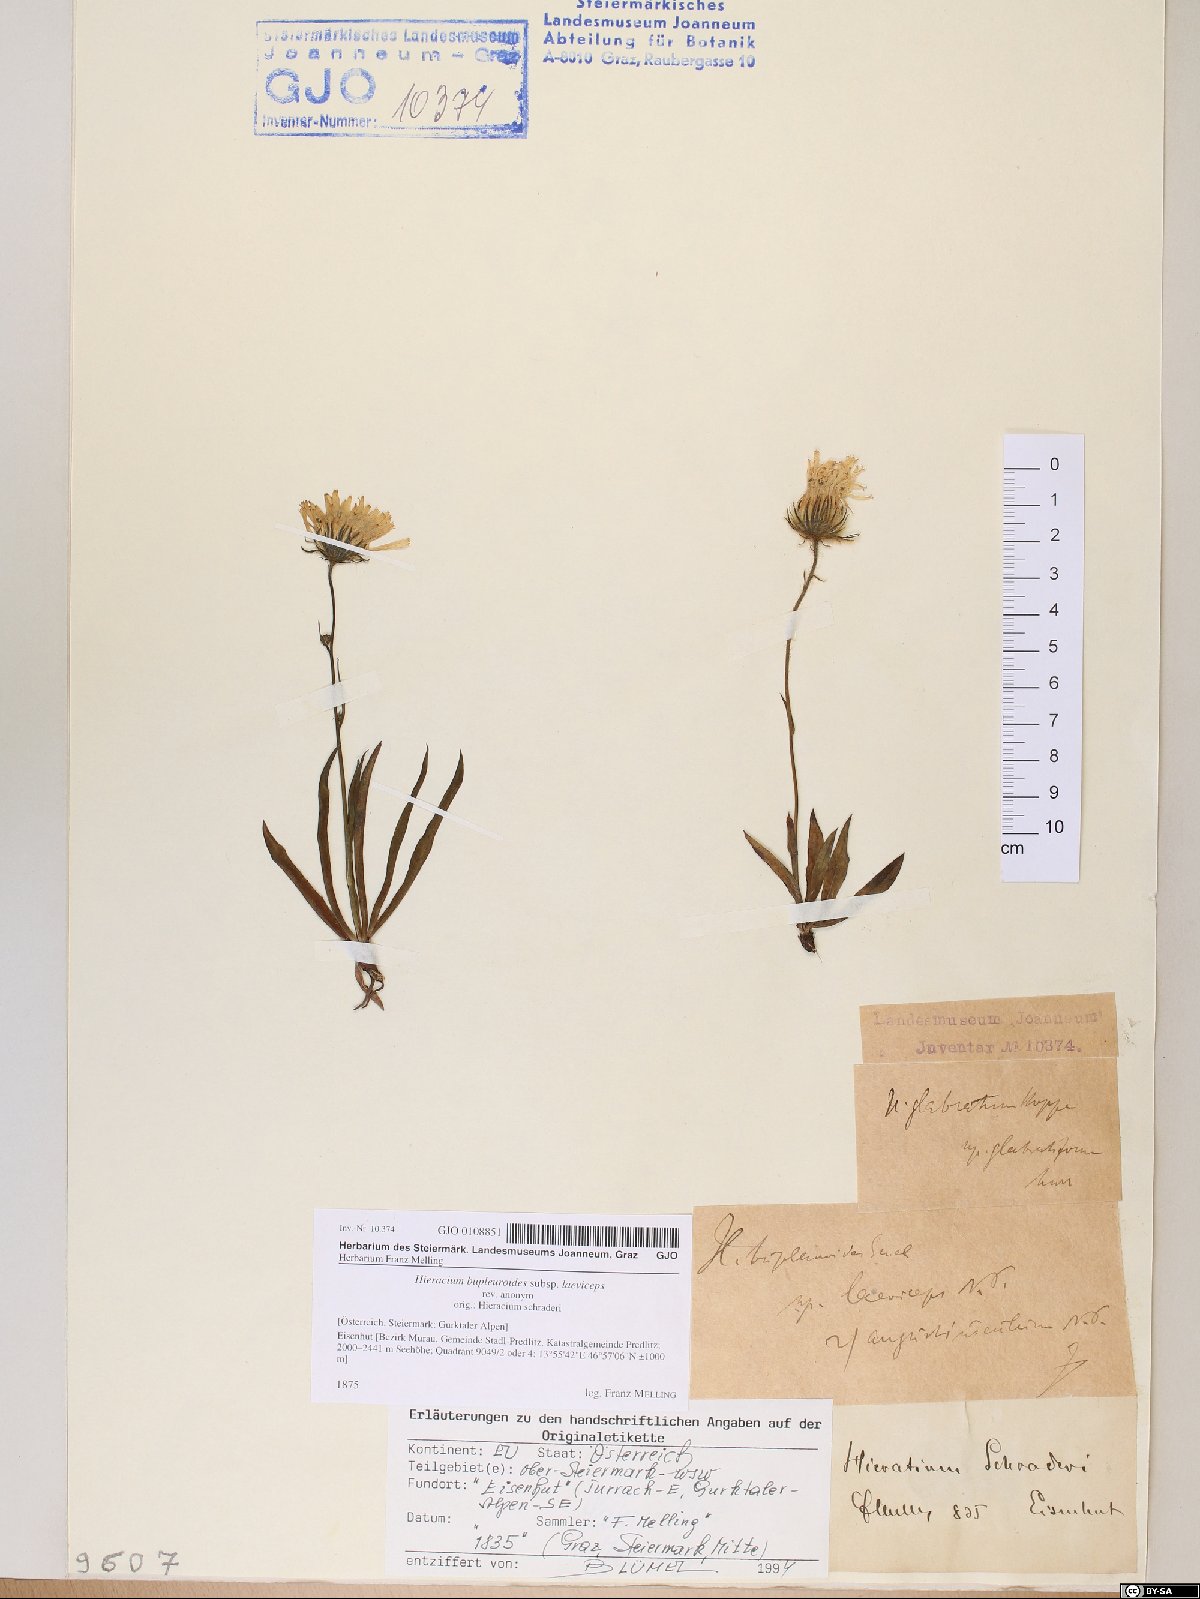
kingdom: Plantae
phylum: Tracheophyta
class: Magnoliopsida
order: Asterales
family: Asteraceae
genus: Hieracium
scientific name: Hieracium bupleuroides
